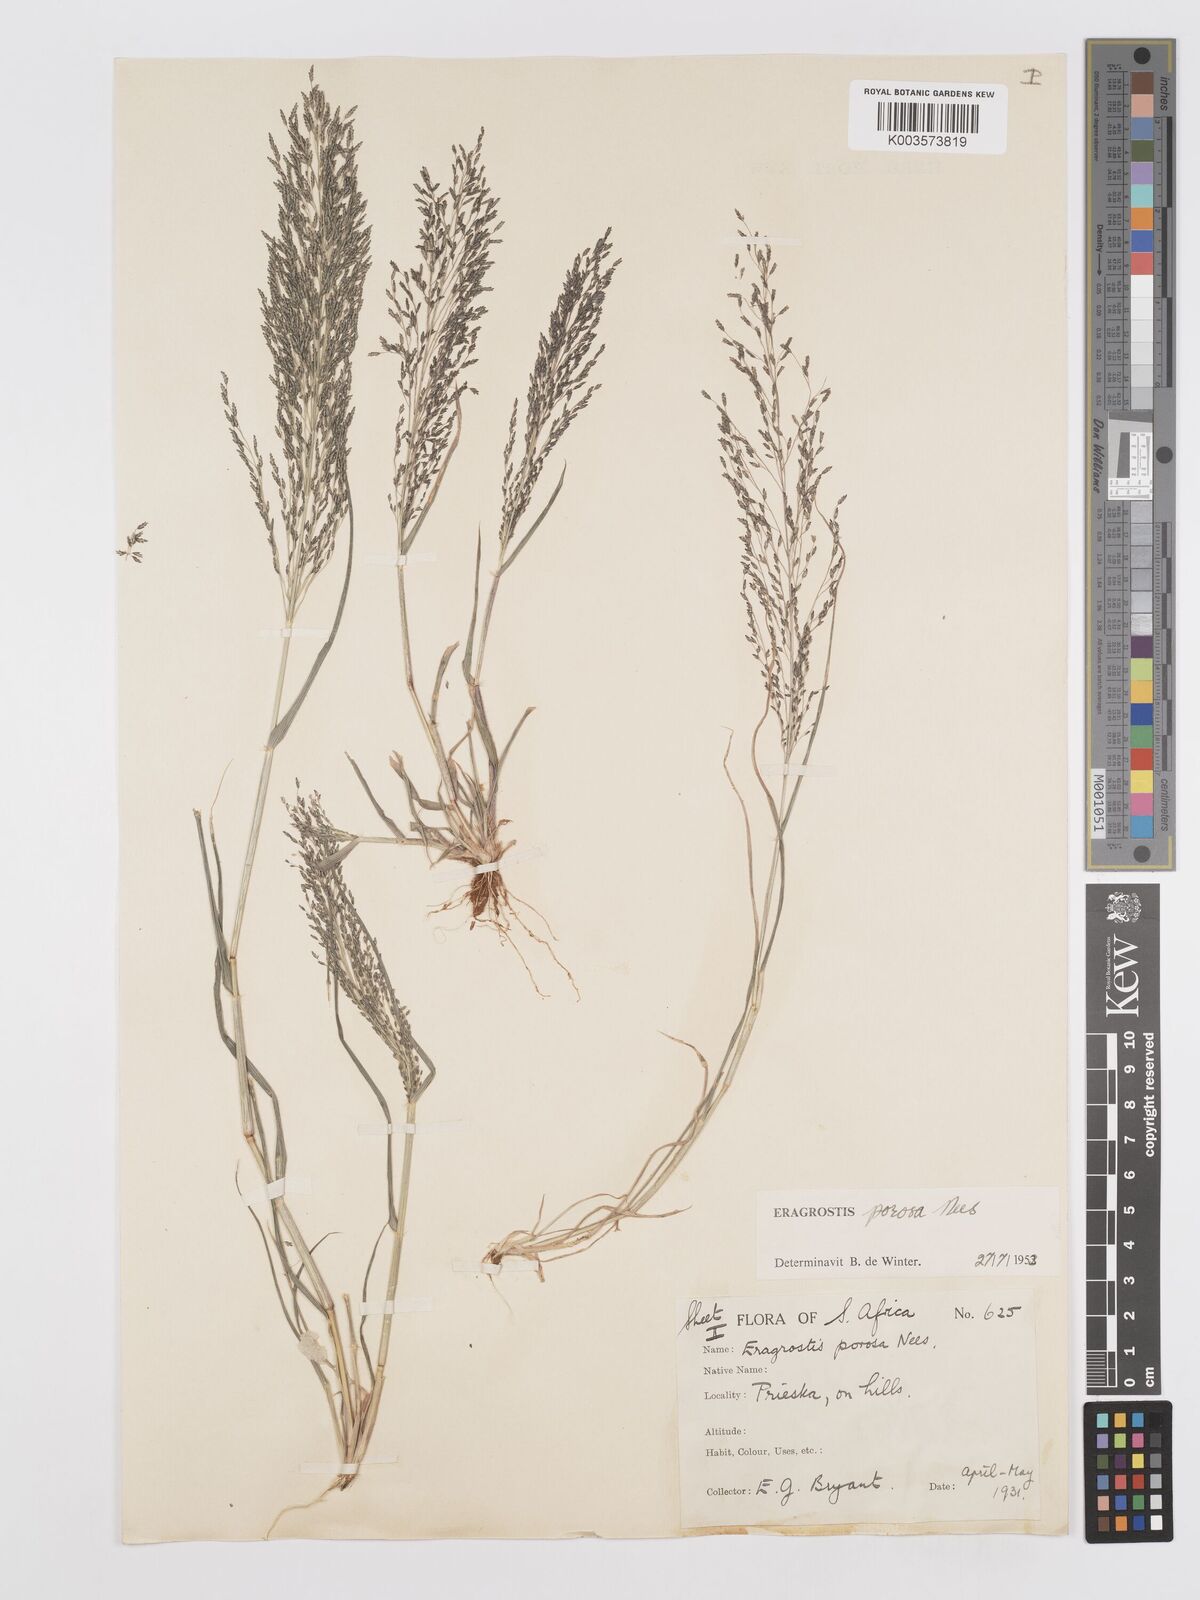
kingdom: Plantae
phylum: Tracheophyta
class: Liliopsida
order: Poales
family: Poaceae
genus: Eragrostis
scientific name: Eragrostis porosa
